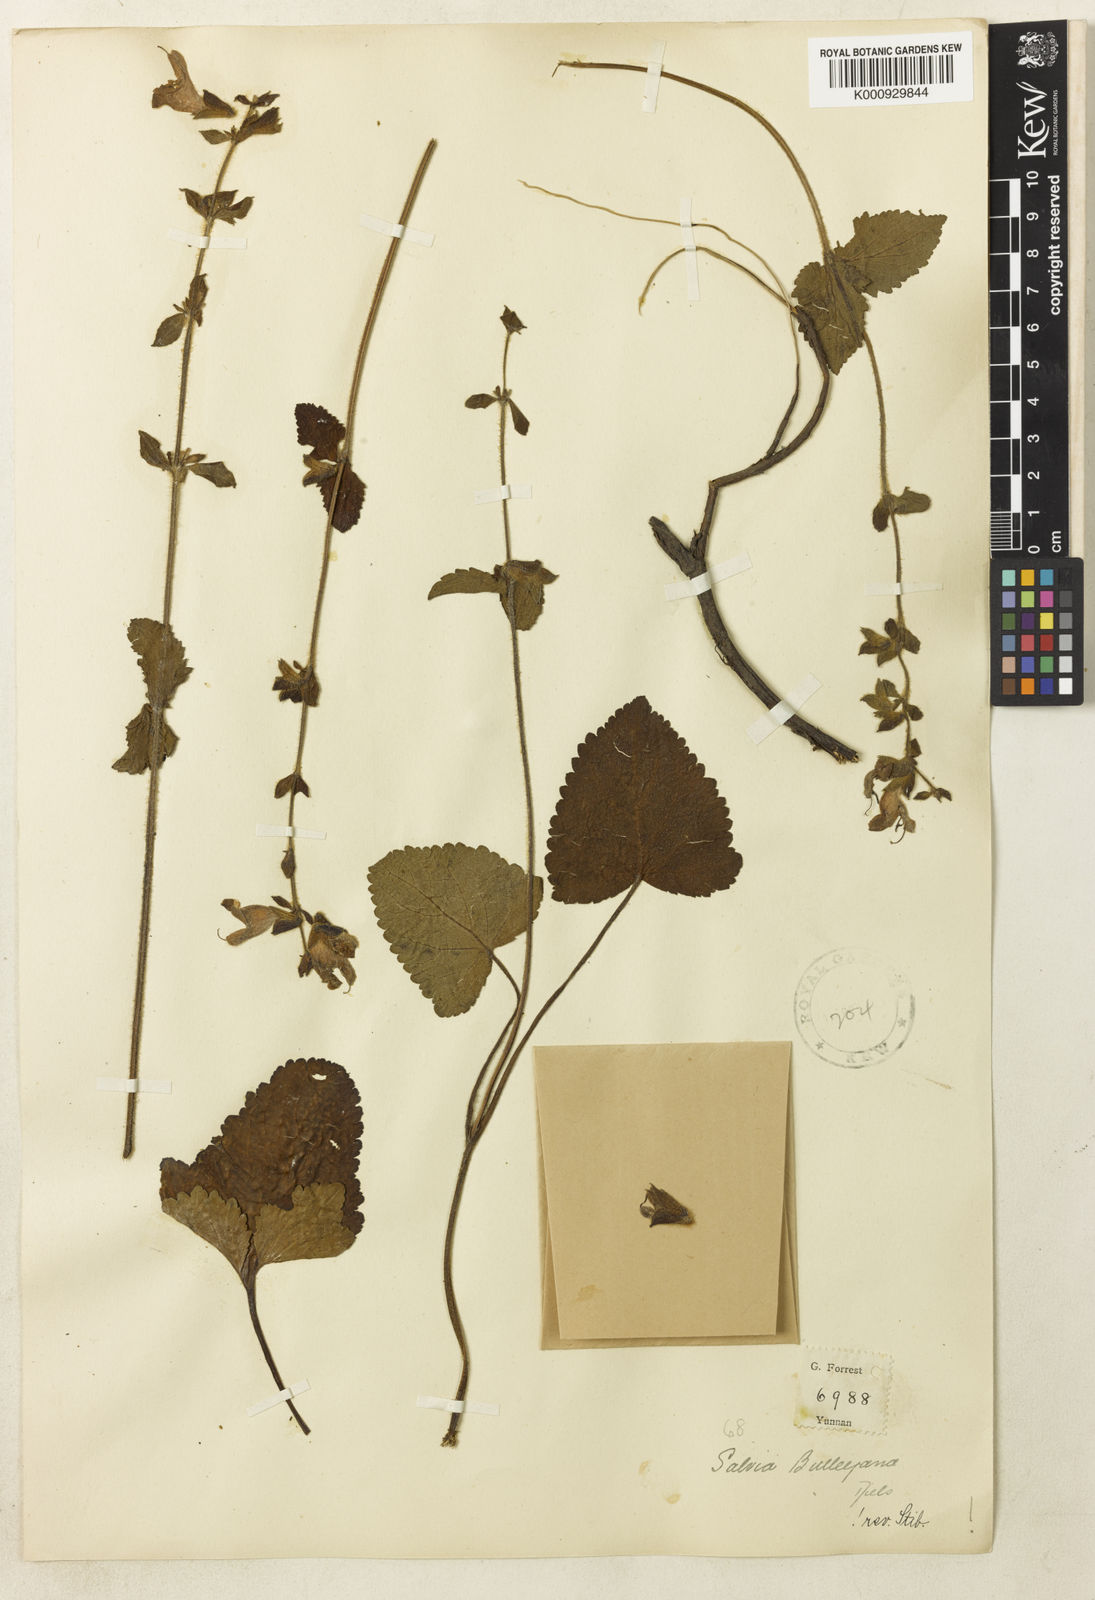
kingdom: Plantae
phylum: Tracheophyta
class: Magnoliopsida
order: Lamiales
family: Lamiaceae
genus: Salvia
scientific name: Salvia bulleyana
